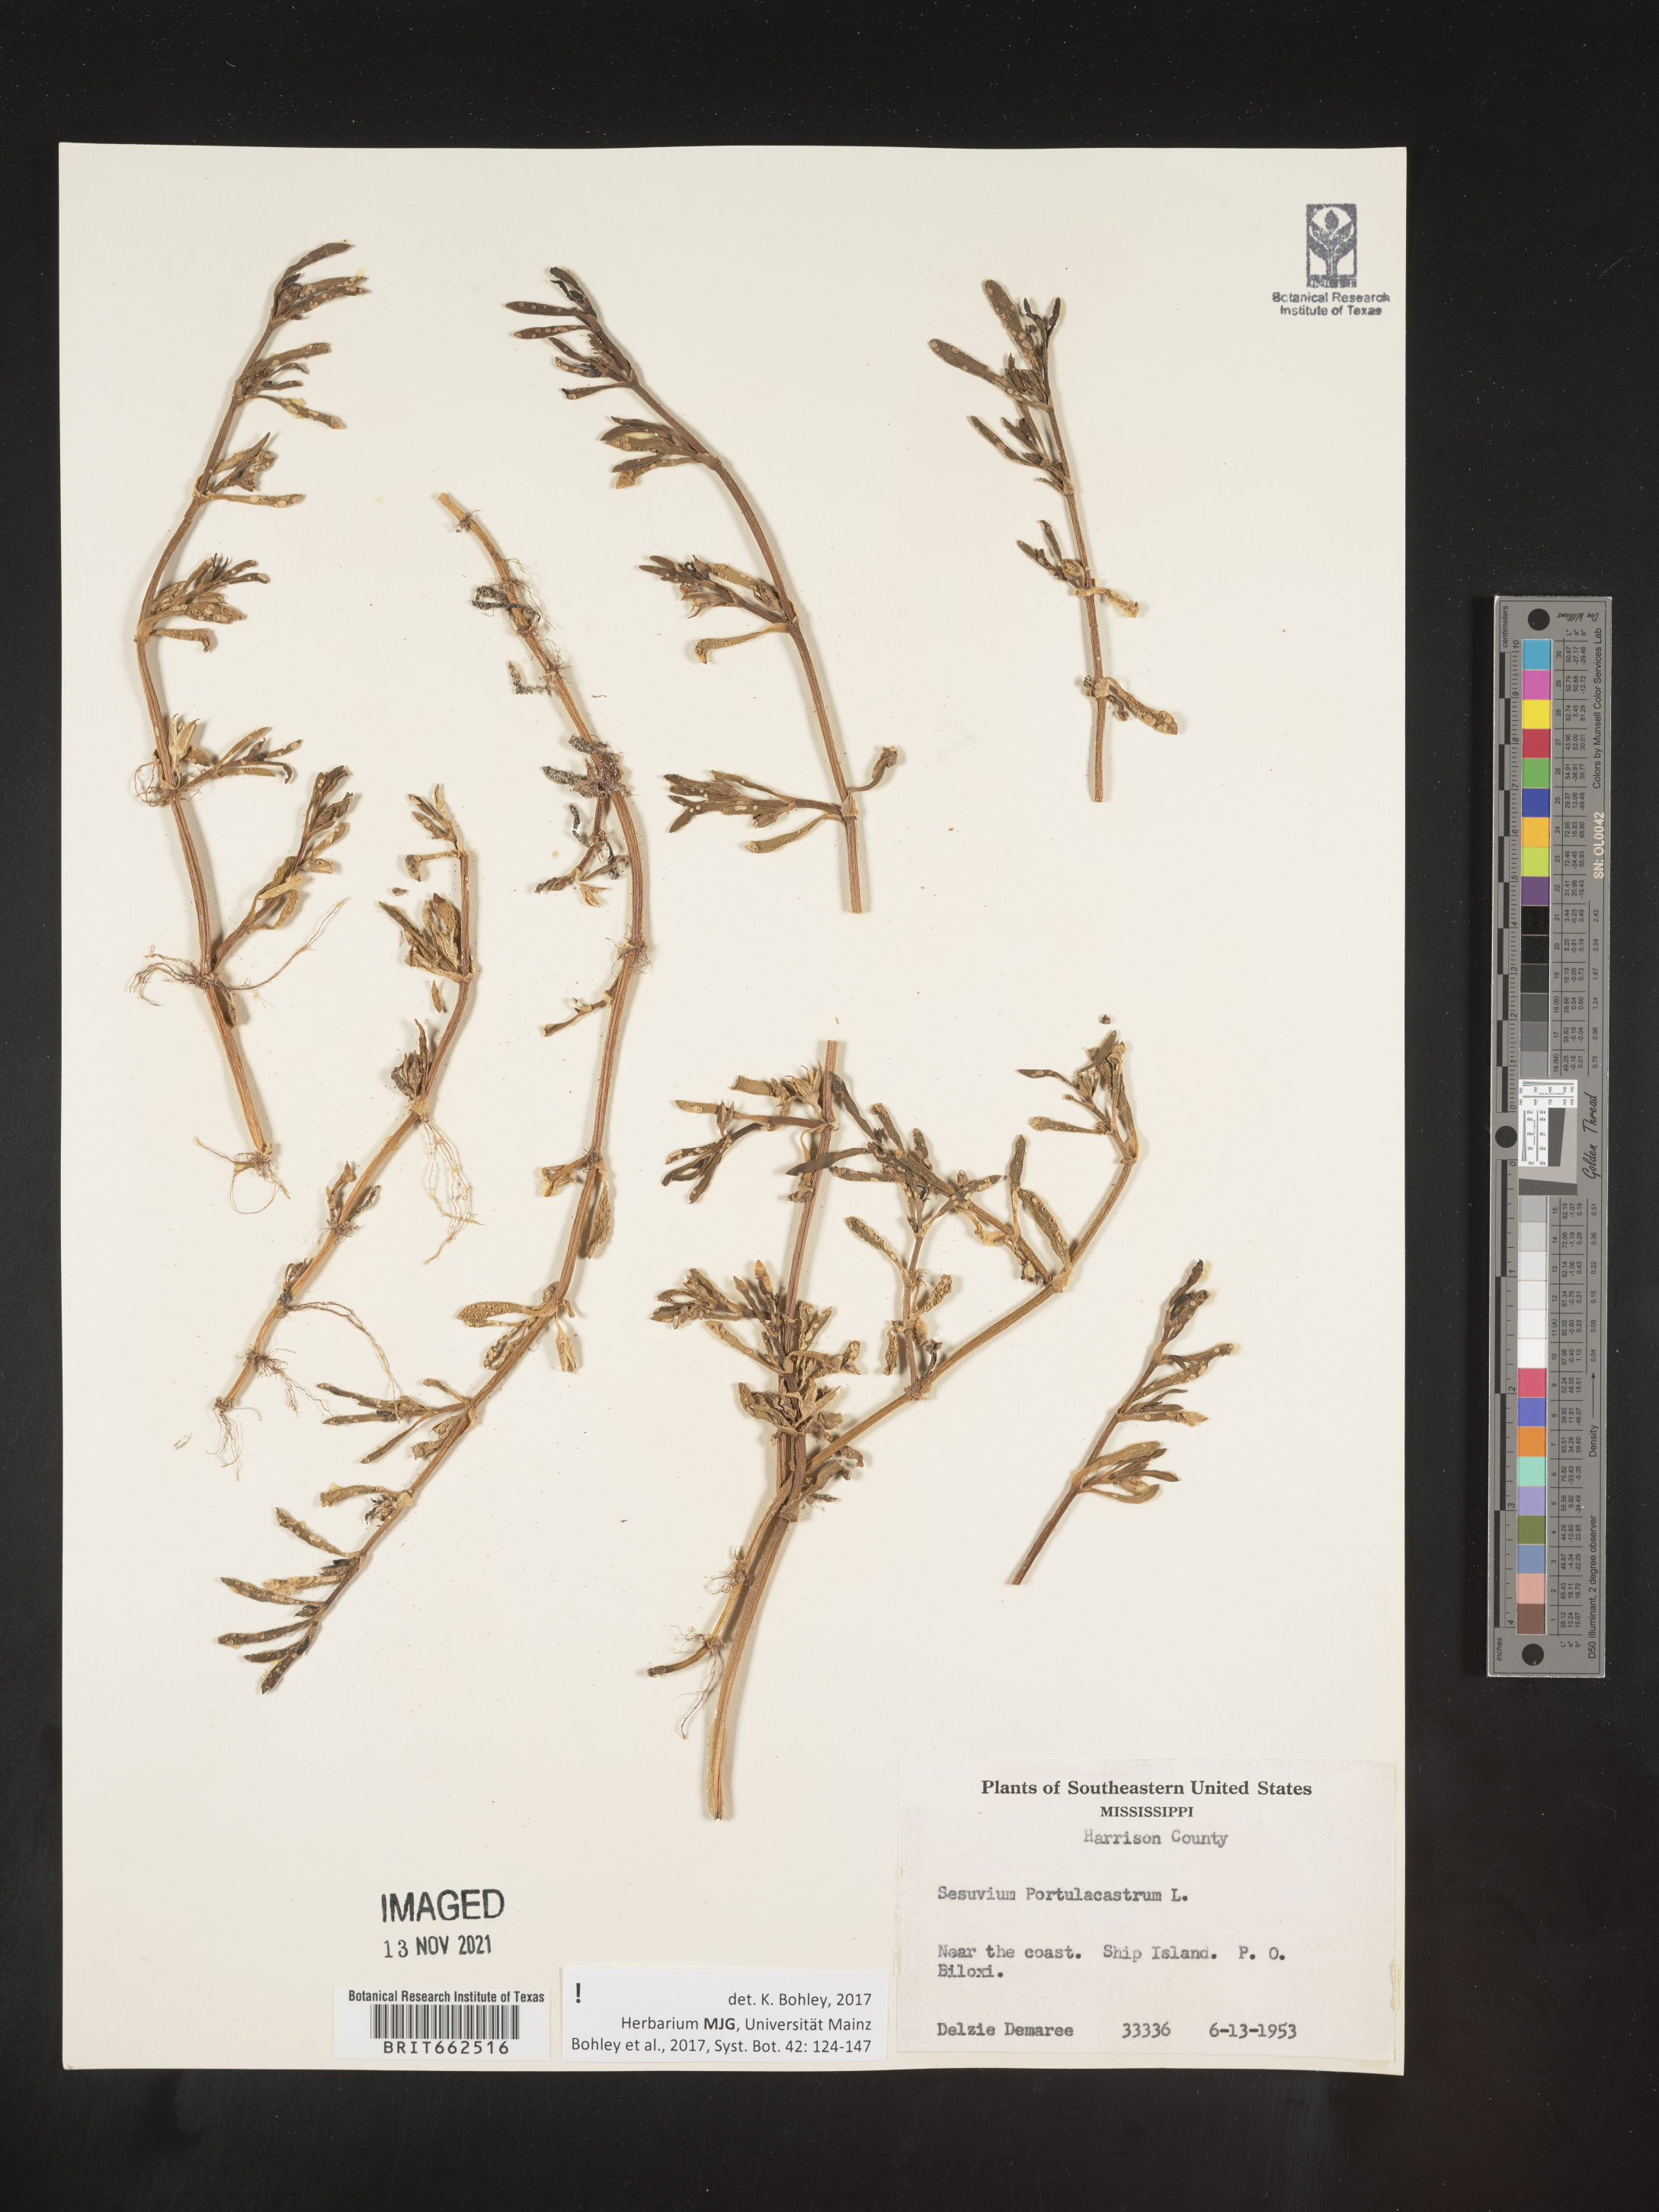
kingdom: Plantae
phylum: Tracheophyta
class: Magnoliopsida
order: Caryophyllales
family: Aizoaceae
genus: Sesuvium
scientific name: Sesuvium portulacastrum
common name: Sea-purslane
